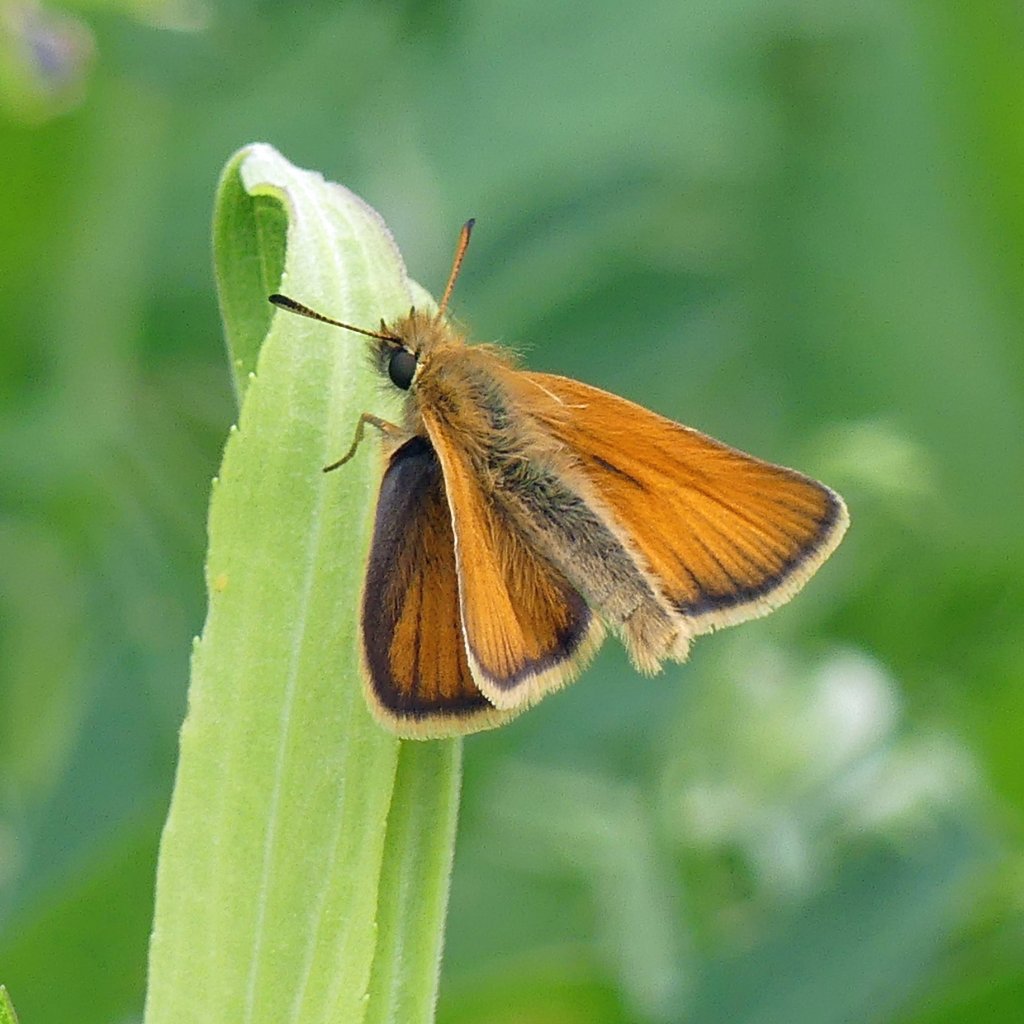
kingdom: Animalia
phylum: Arthropoda
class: Insecta
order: Lepidoptera
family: Hesperiidae
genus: Thymelicus
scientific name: Thymelicus lineola
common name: European Skipper
